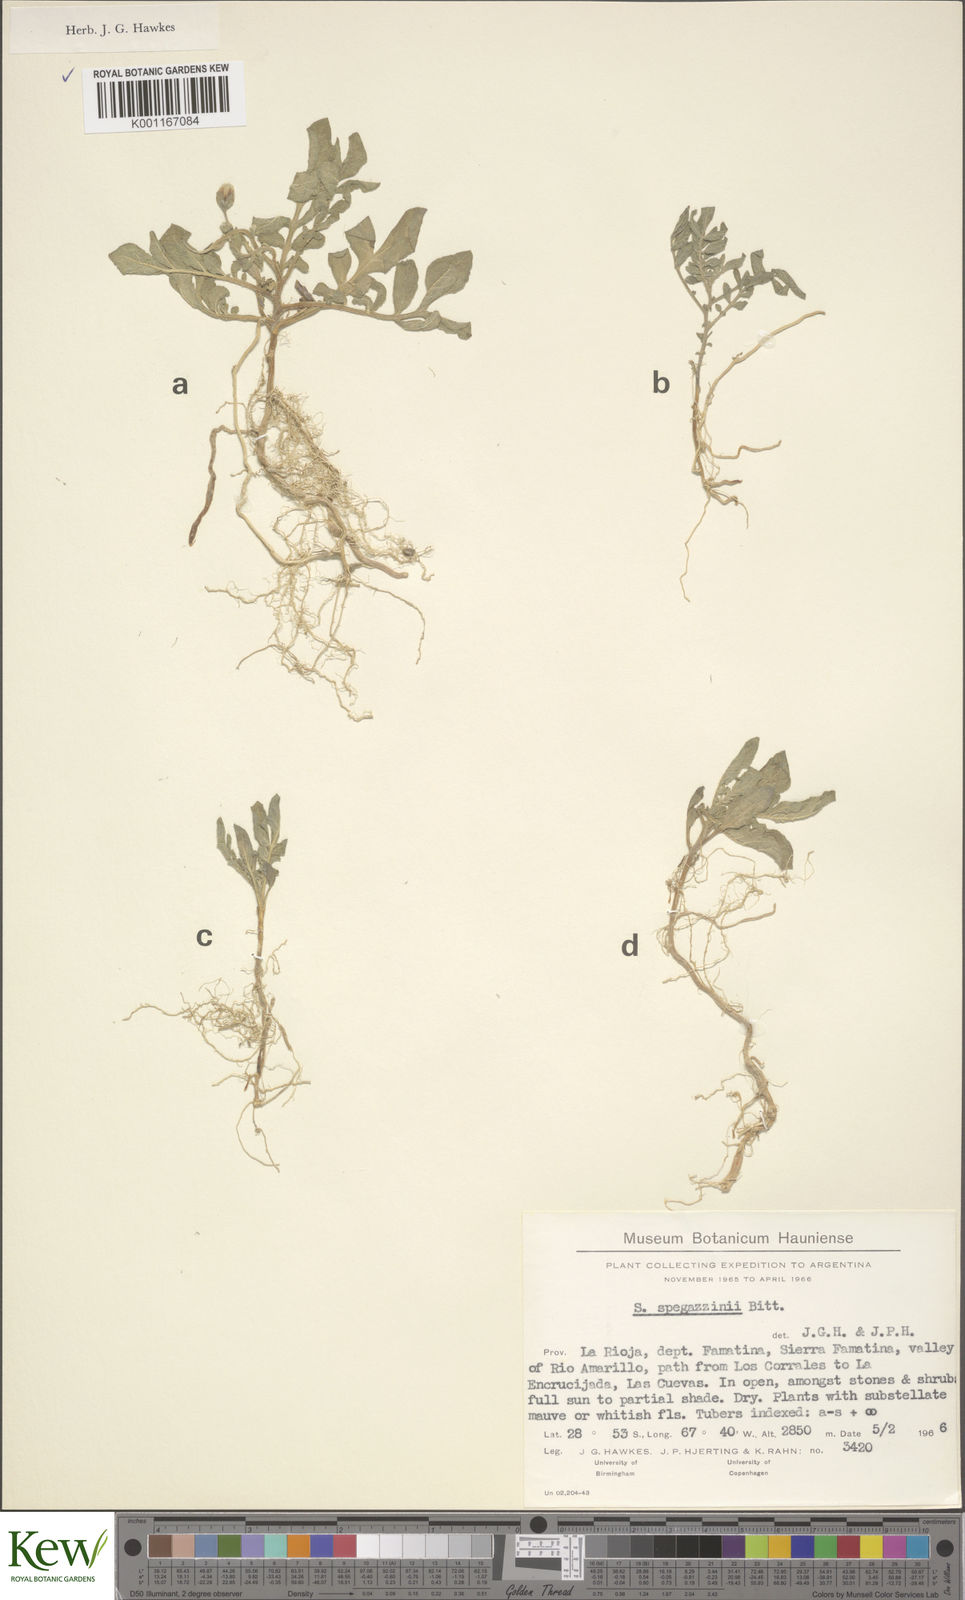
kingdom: Plantae
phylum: Tracheophyta
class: Magnoliopsida
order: Solanales
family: Solanaceae
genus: Solanum
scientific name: Solanum brevicaule
